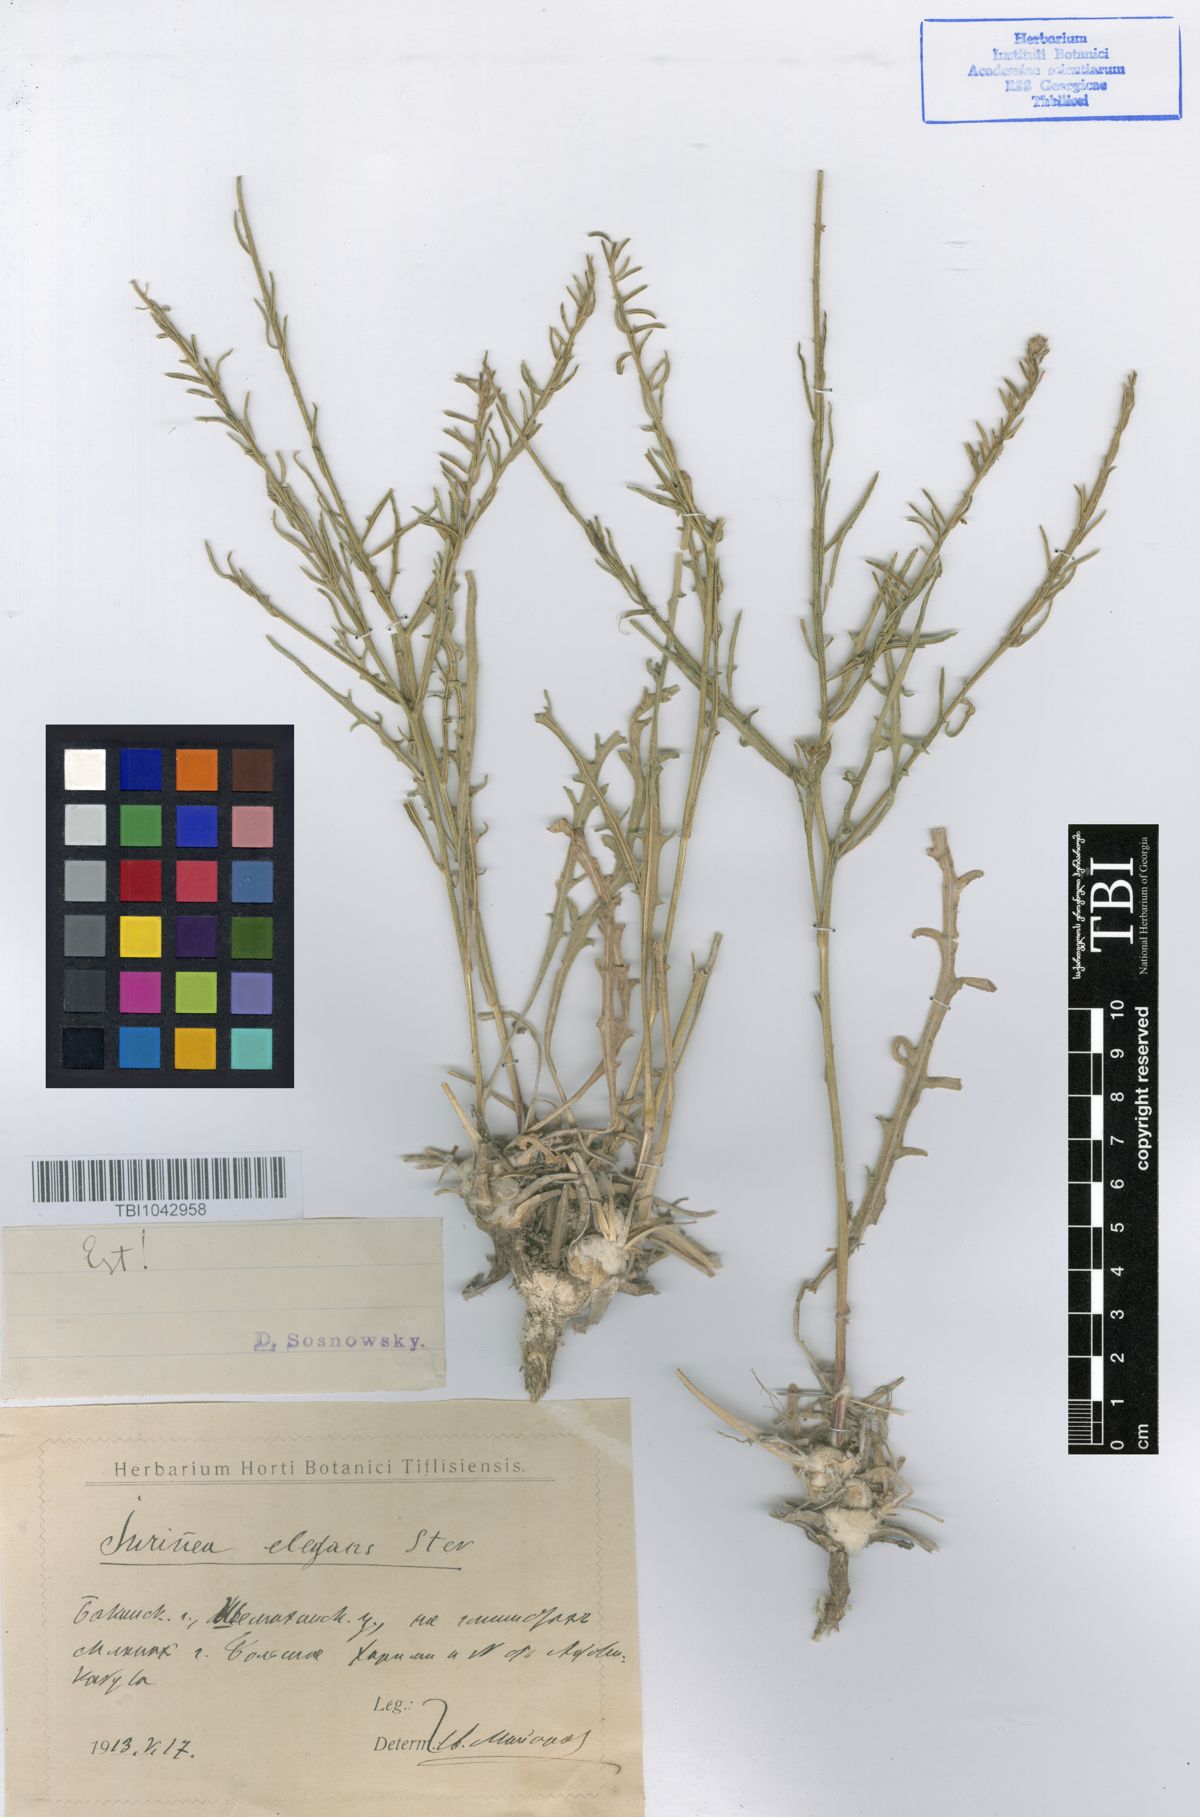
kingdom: Plantae
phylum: Tracheophyta
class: Magnoliopsida
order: Asterales
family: Asteraceae
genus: Jurinea
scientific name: Jurinea elegans
